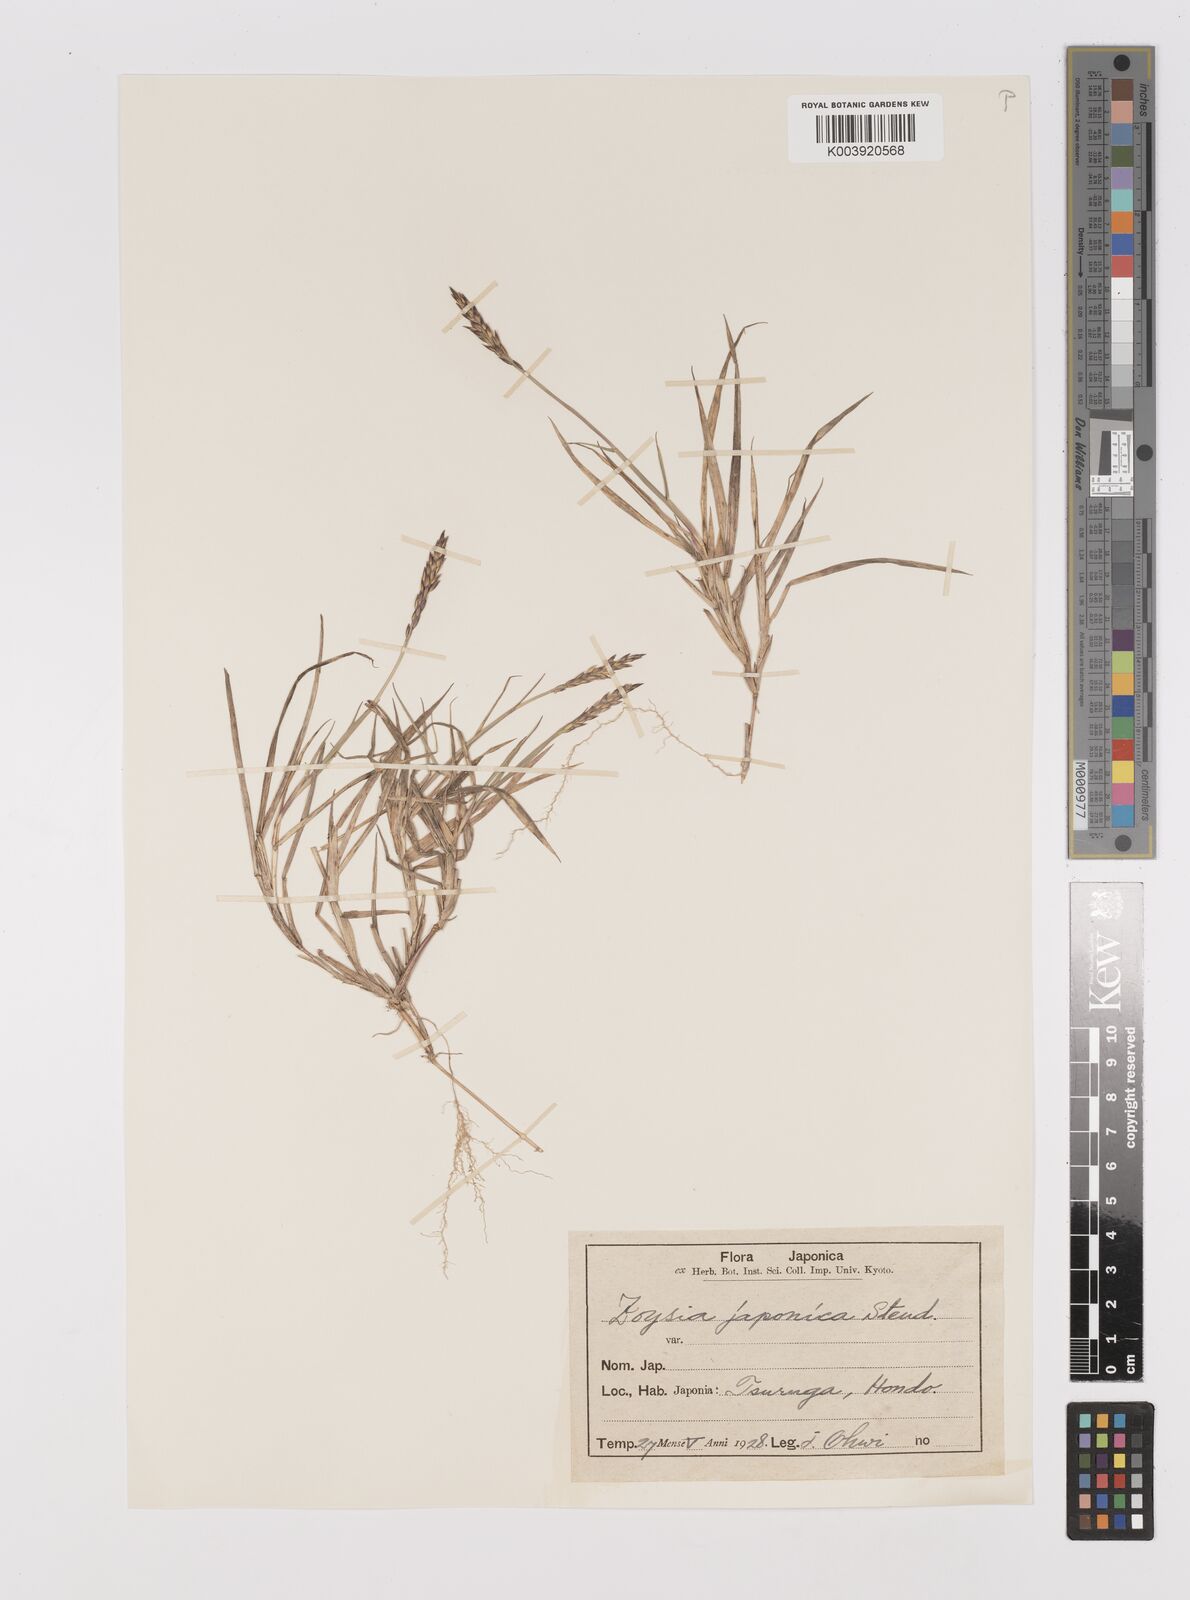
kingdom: Plantae
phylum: Tracheophyta
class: Liliopsida
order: Poales
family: Poaceae
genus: Zoysia
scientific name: Zoysia japonica
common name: Korean lawngrass
